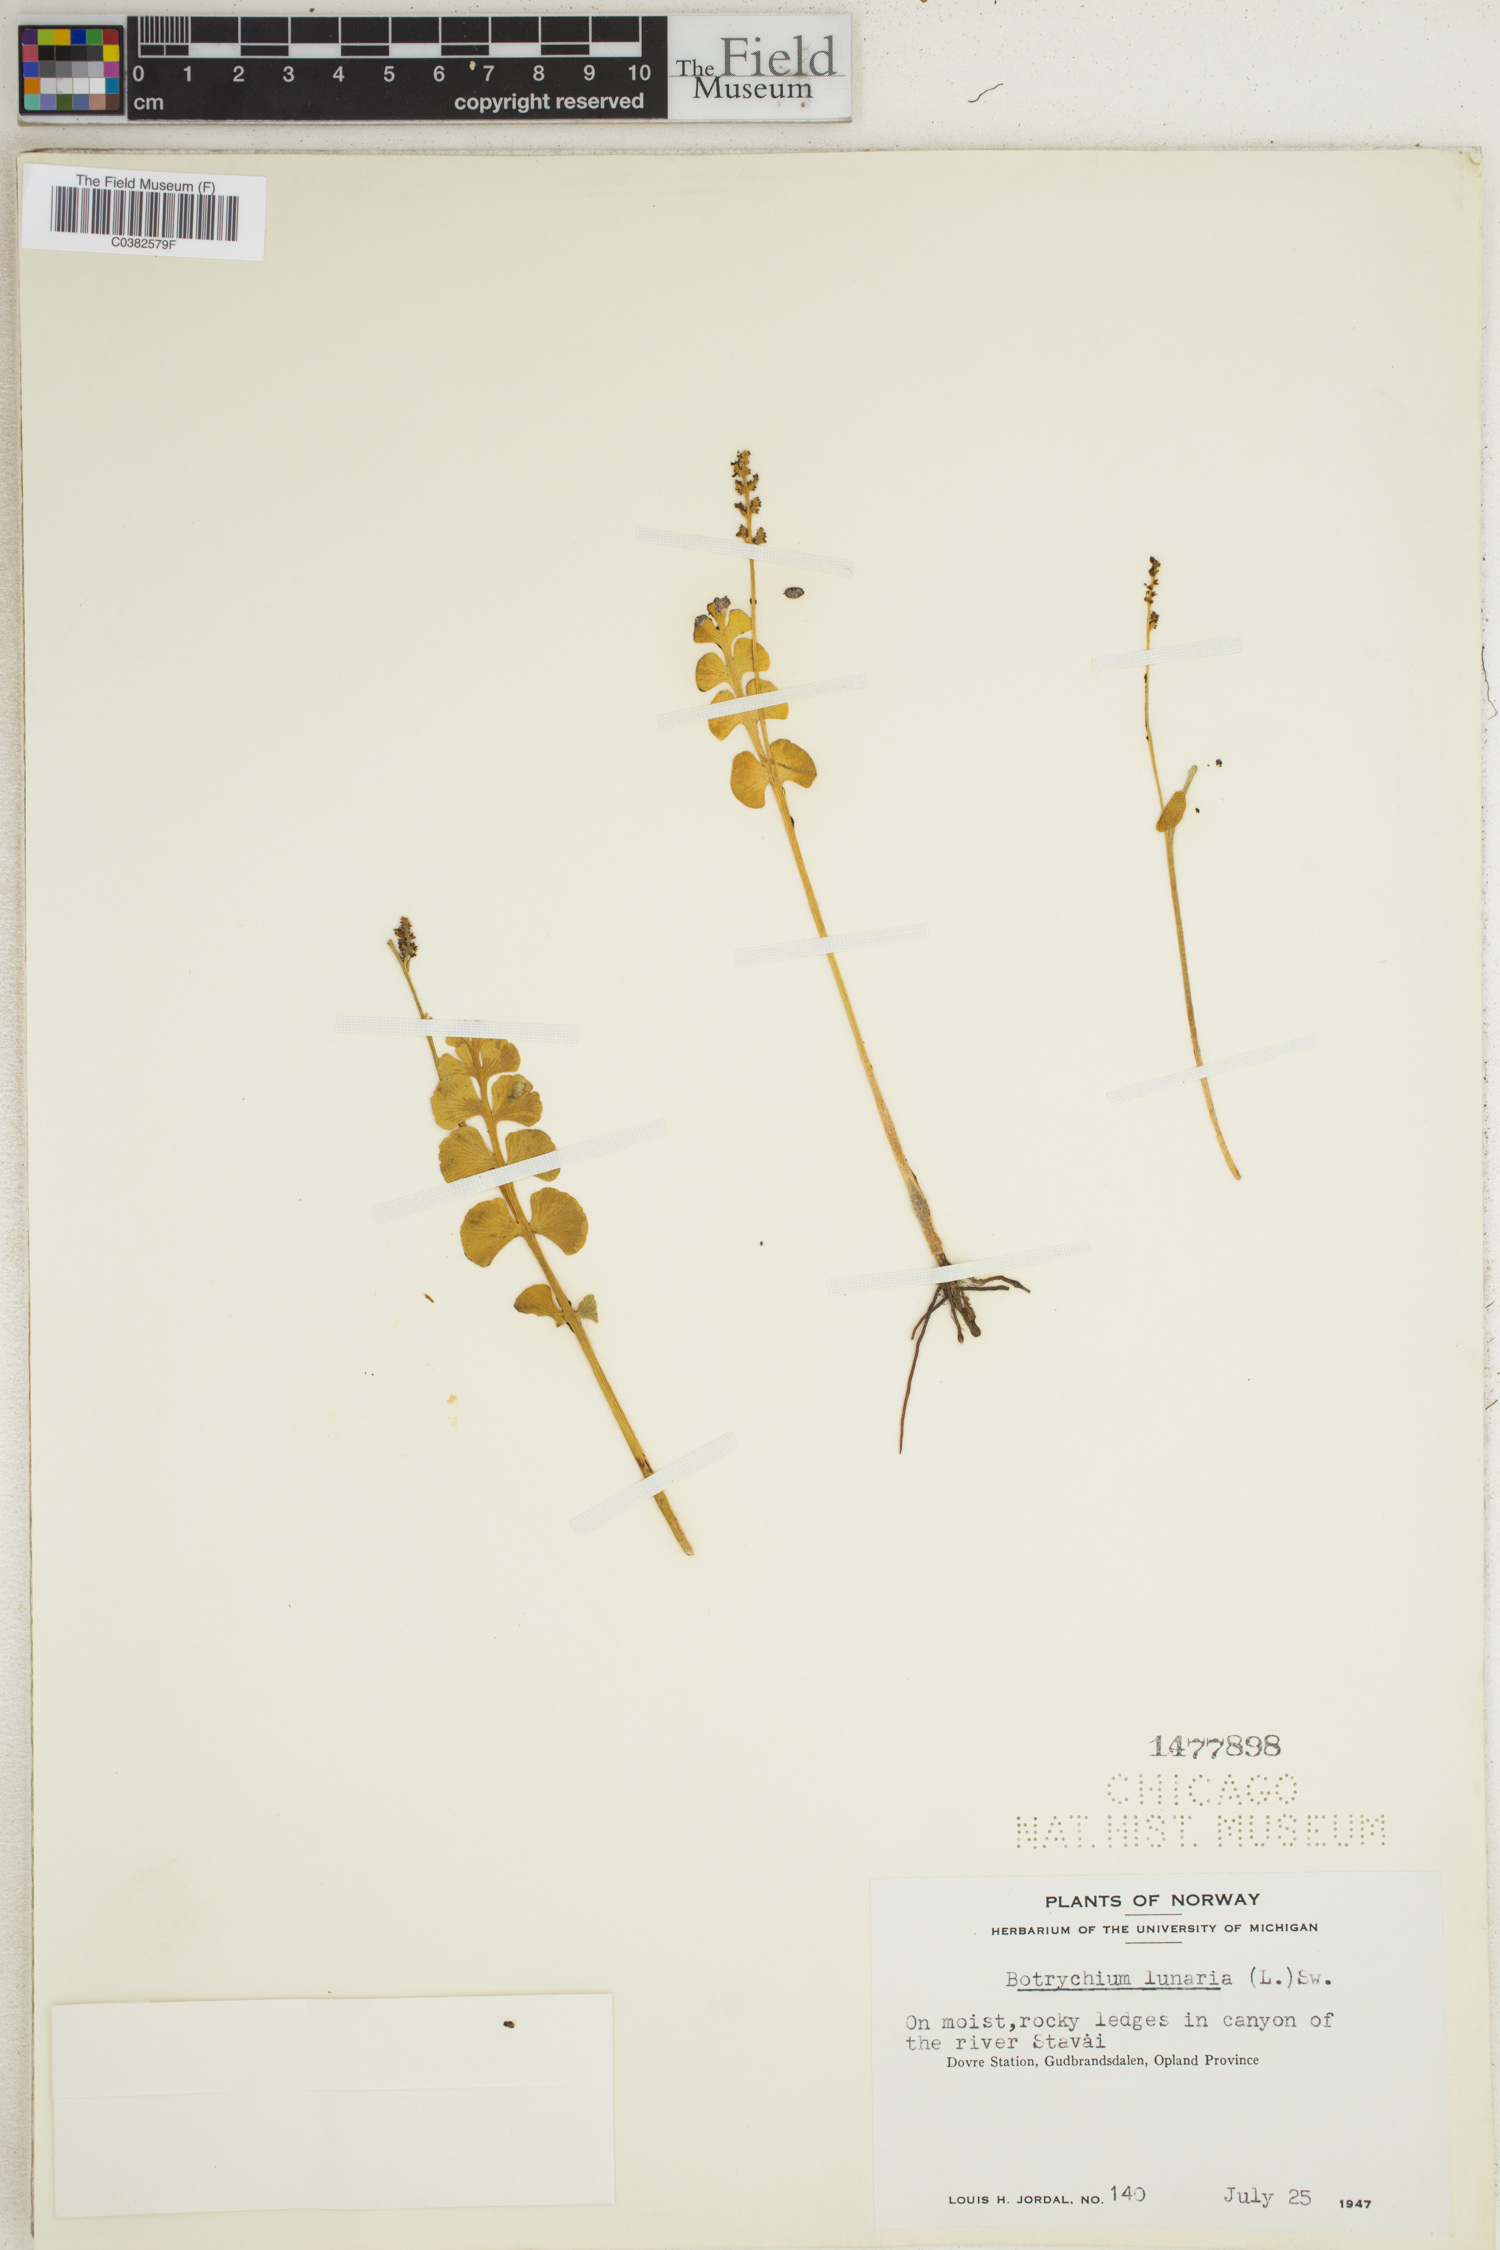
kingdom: Plantae
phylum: Tracheophyta
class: Polypodiopsida
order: Ophioglossales
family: Ophioglossaceae
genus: Botrychium
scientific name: Botrychium lunaria
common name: Moonwort
